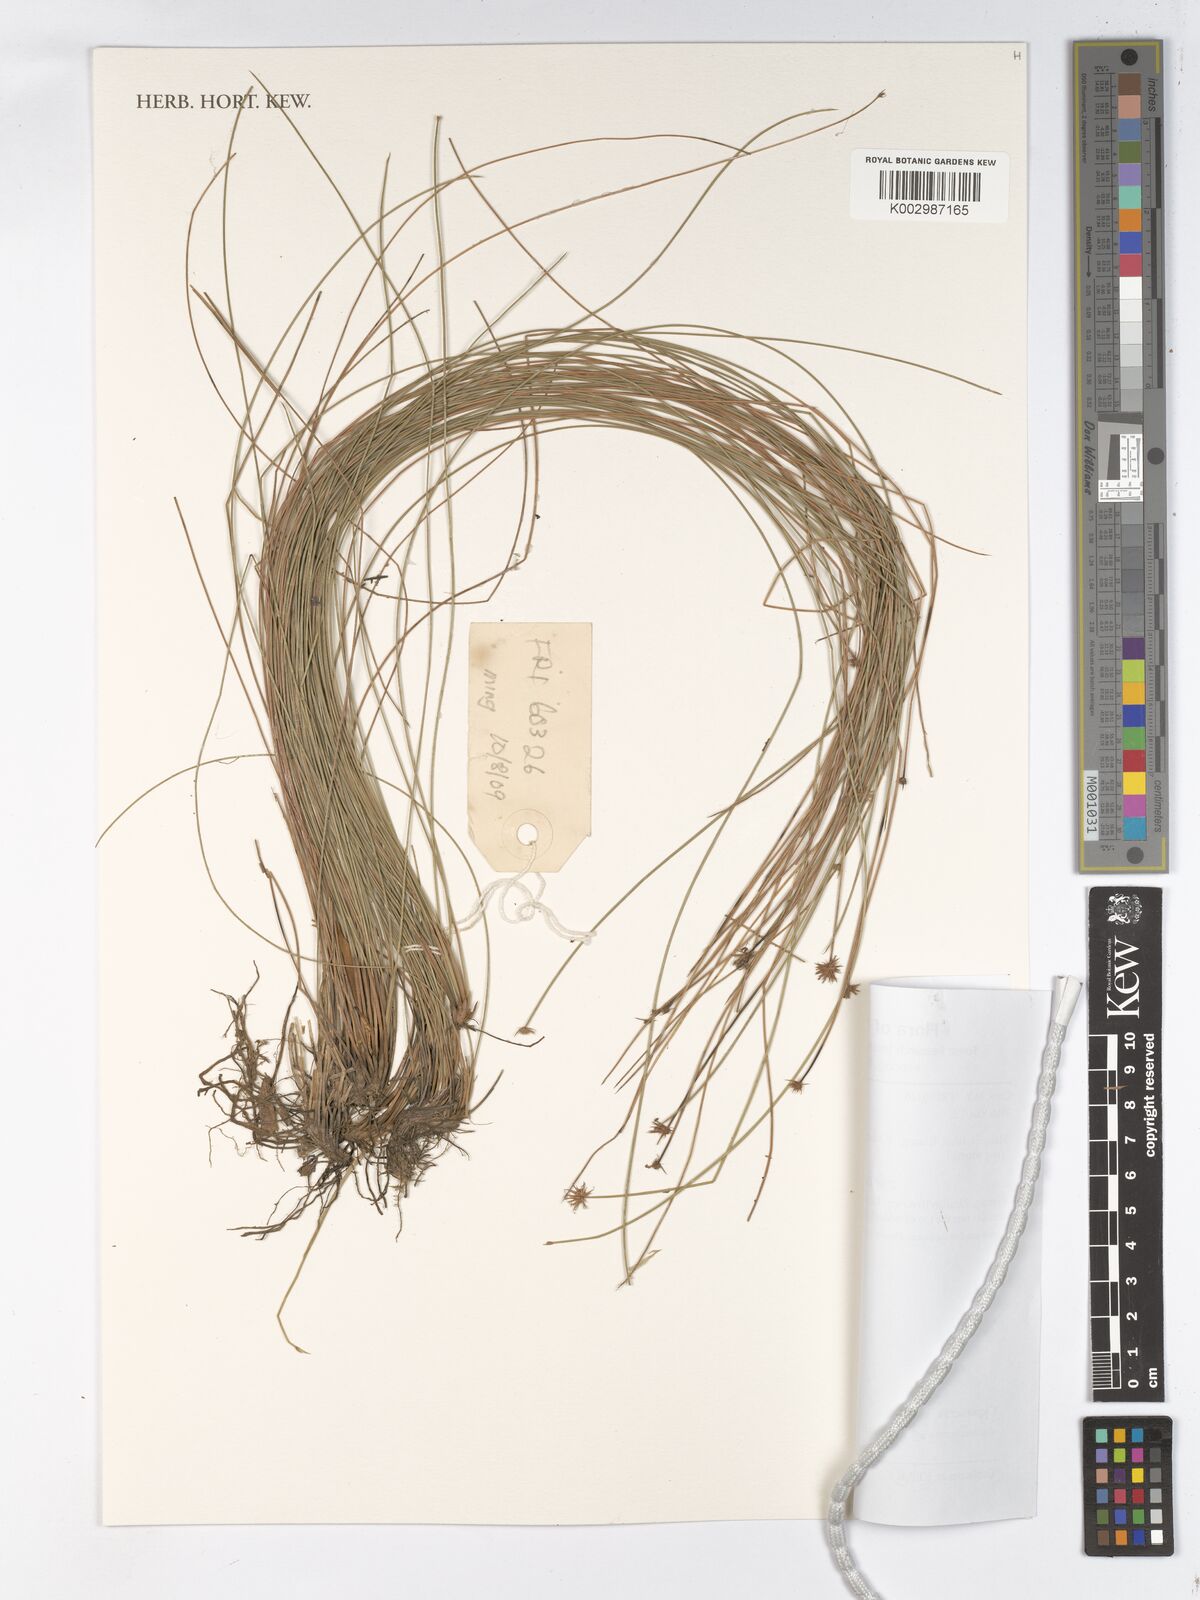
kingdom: Plantae
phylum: Tracheophyta
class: Liliopsida
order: Poales
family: Cyperaceae
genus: Actinoschoenus
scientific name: Actinoschoenus aphyllus
